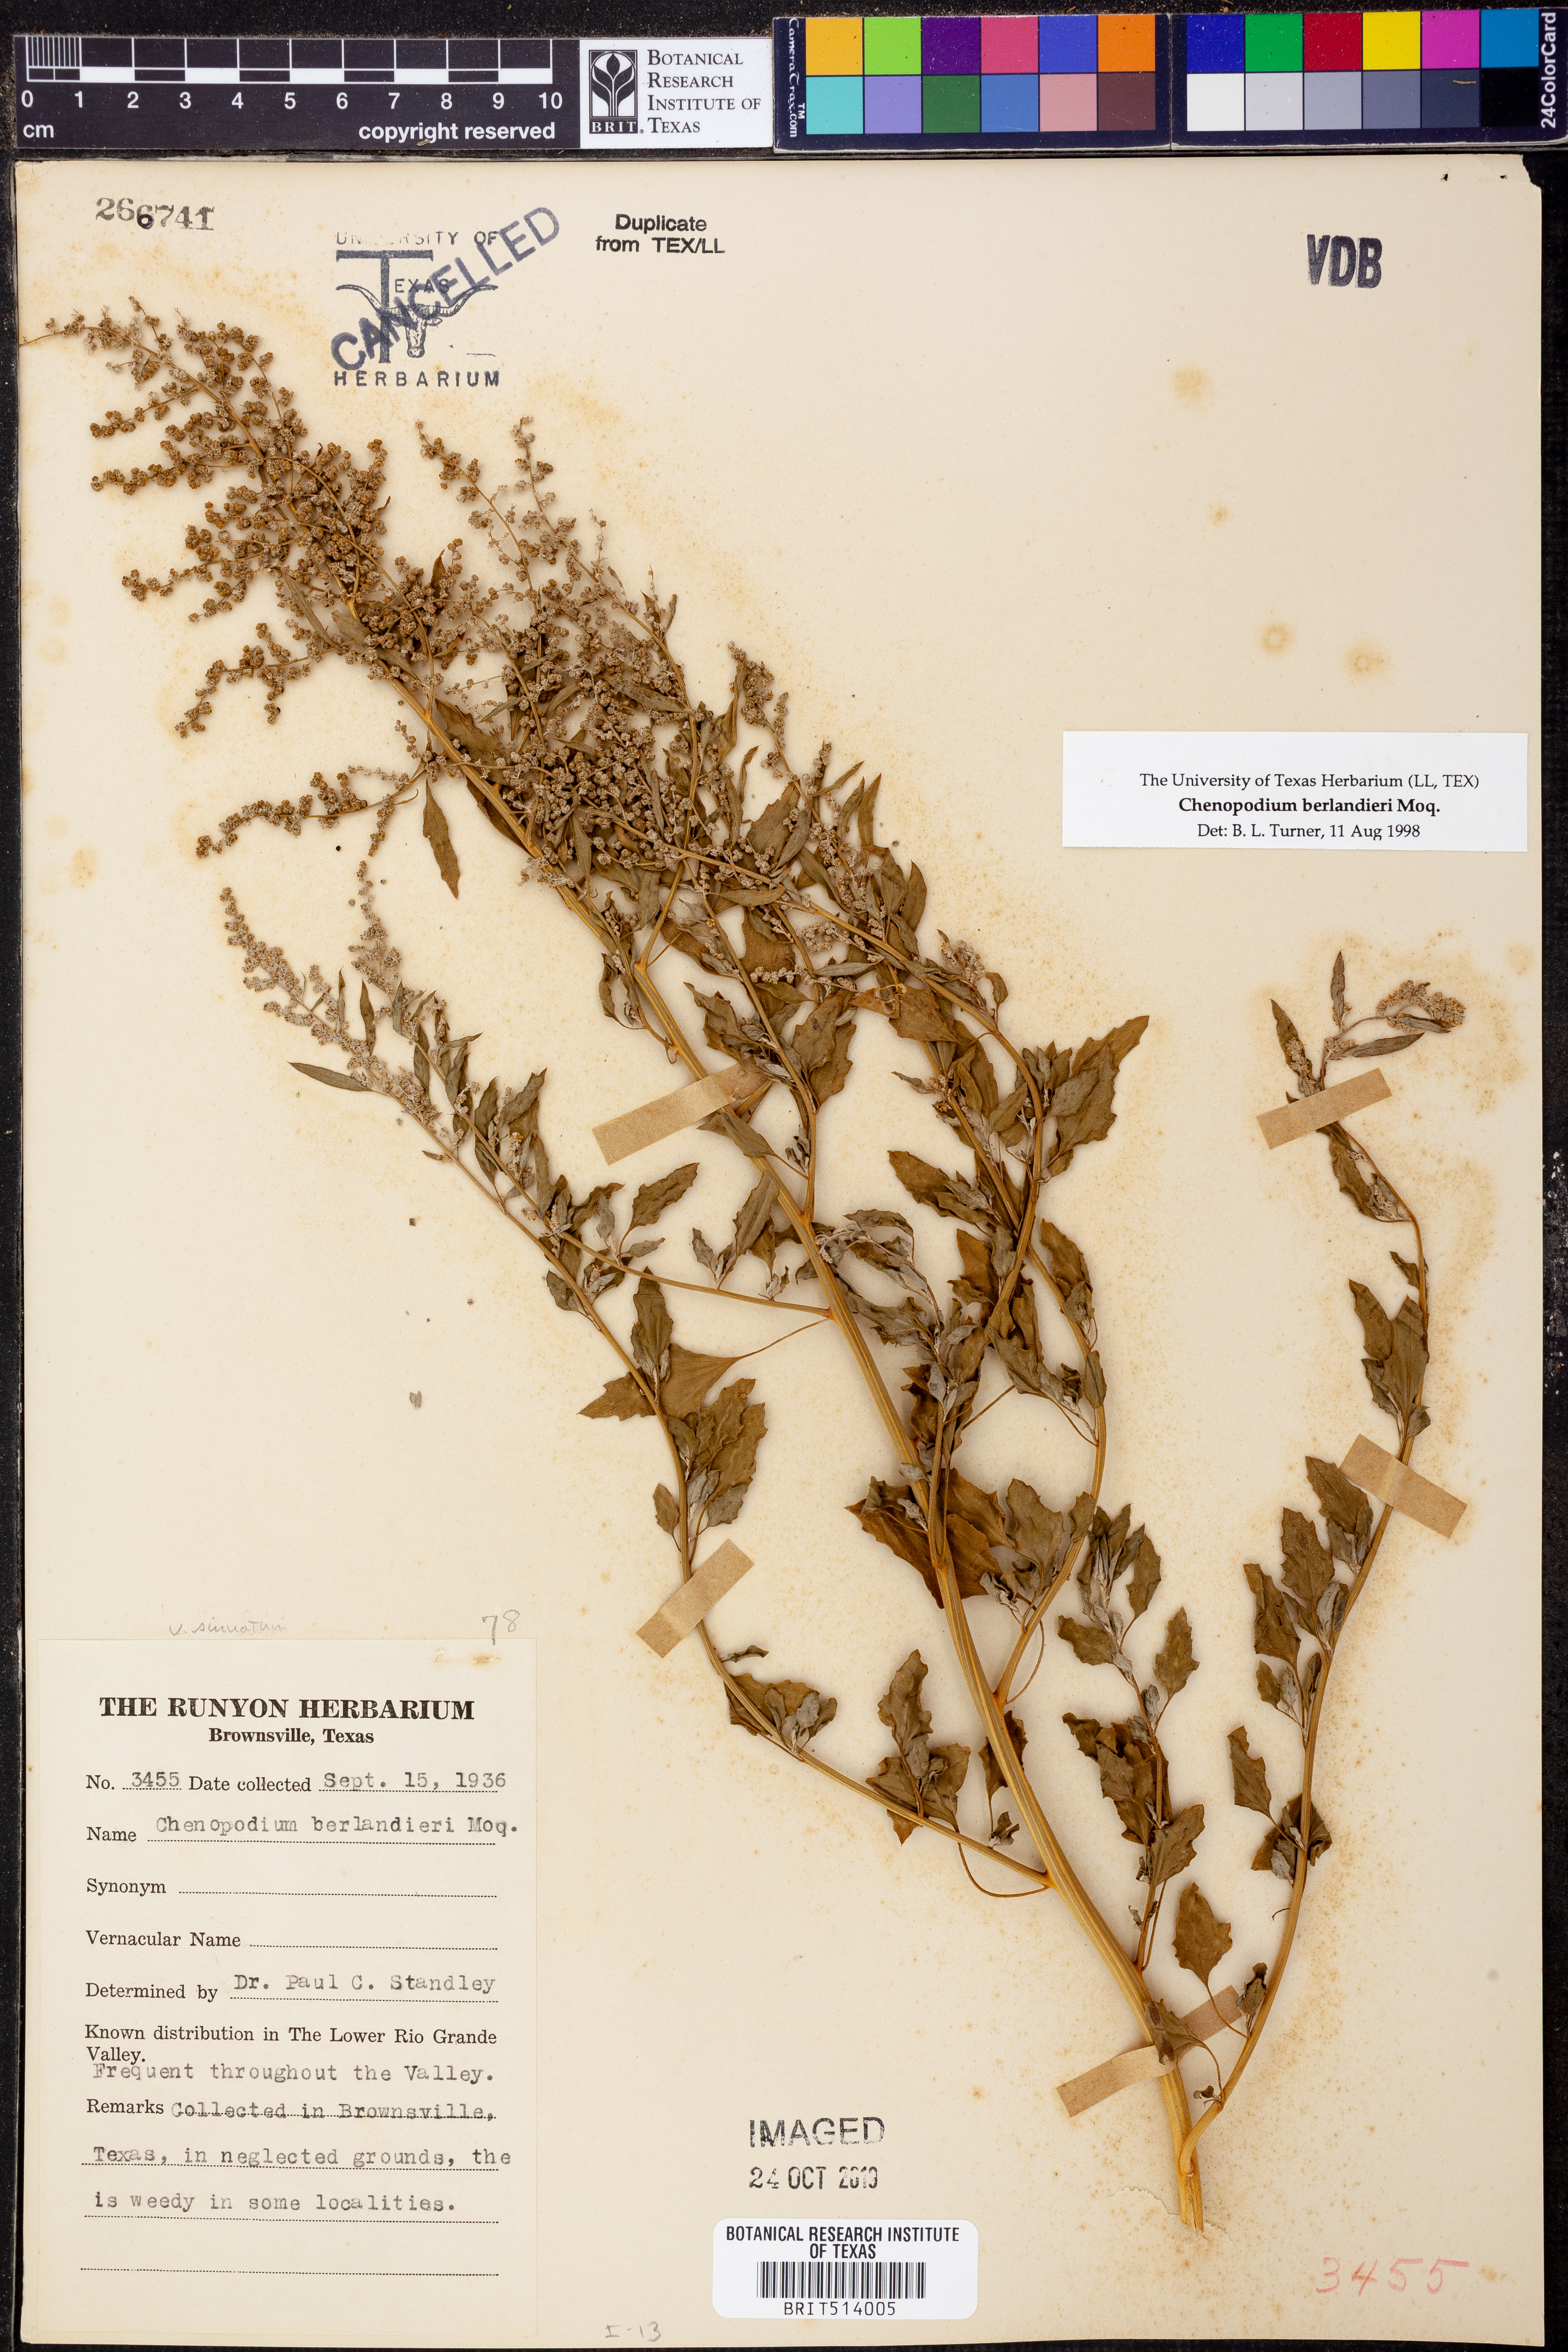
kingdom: Plantae
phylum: Tracheophyta
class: Magnoliopsida
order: Caryophyllales
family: Amaranthaceae
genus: Chenopodium
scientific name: Chenopodium berlandieri
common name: Pit-seed goosefoot
